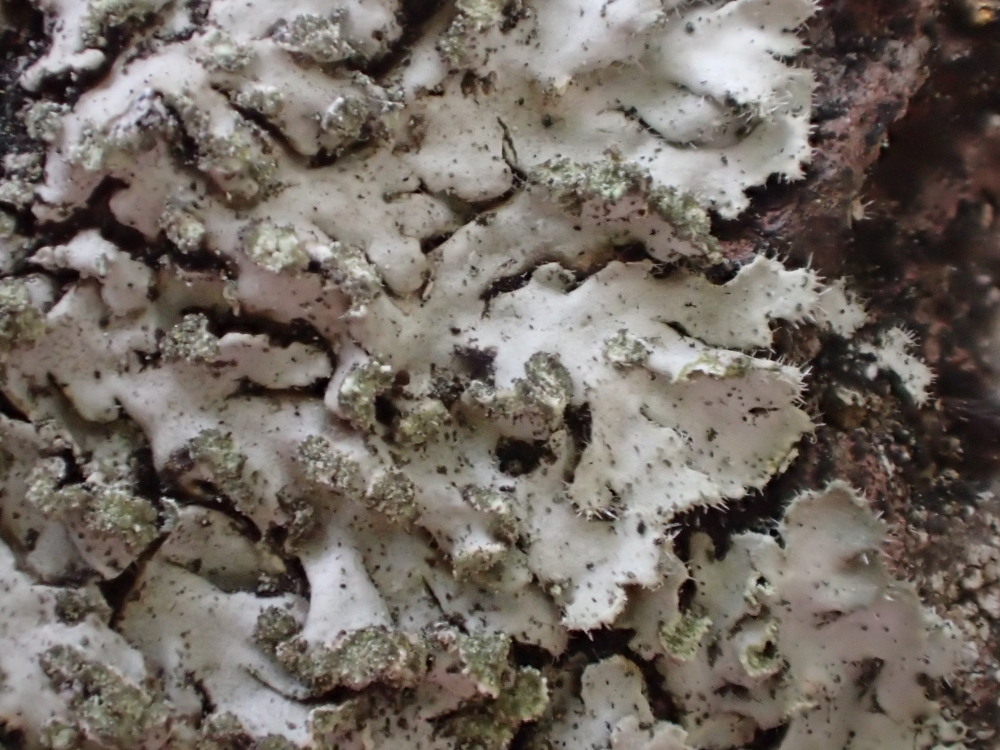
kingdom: Fungi
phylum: Ascomycota
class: Lecanoromycetes
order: Caliciales
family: Physciaceae
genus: Phaeophyscia
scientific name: Phaeophyscia orbicularis
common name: grågrøn rosetlav
